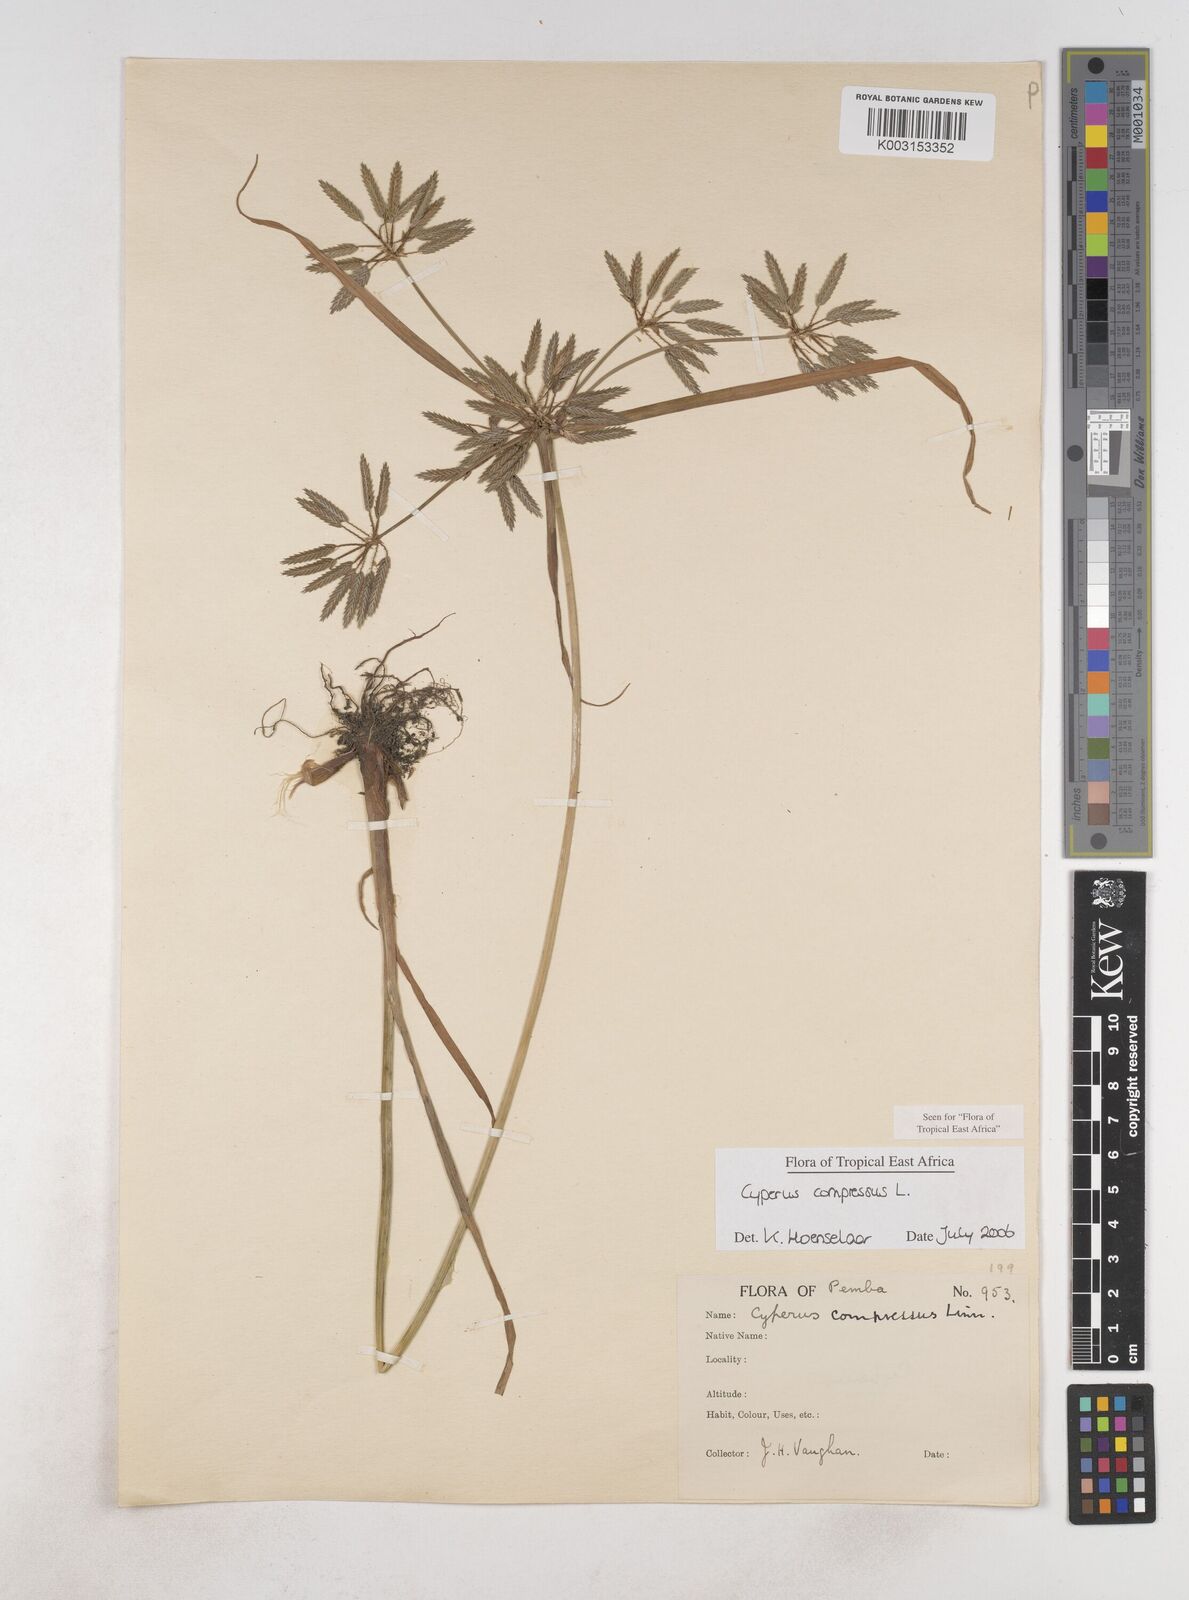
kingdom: Plantae
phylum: Tracheophyta
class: Liliopsida
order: Poales
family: Cyperaceae
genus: Cyperus
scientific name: Cyperus compressus
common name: Poorland flatsedge
